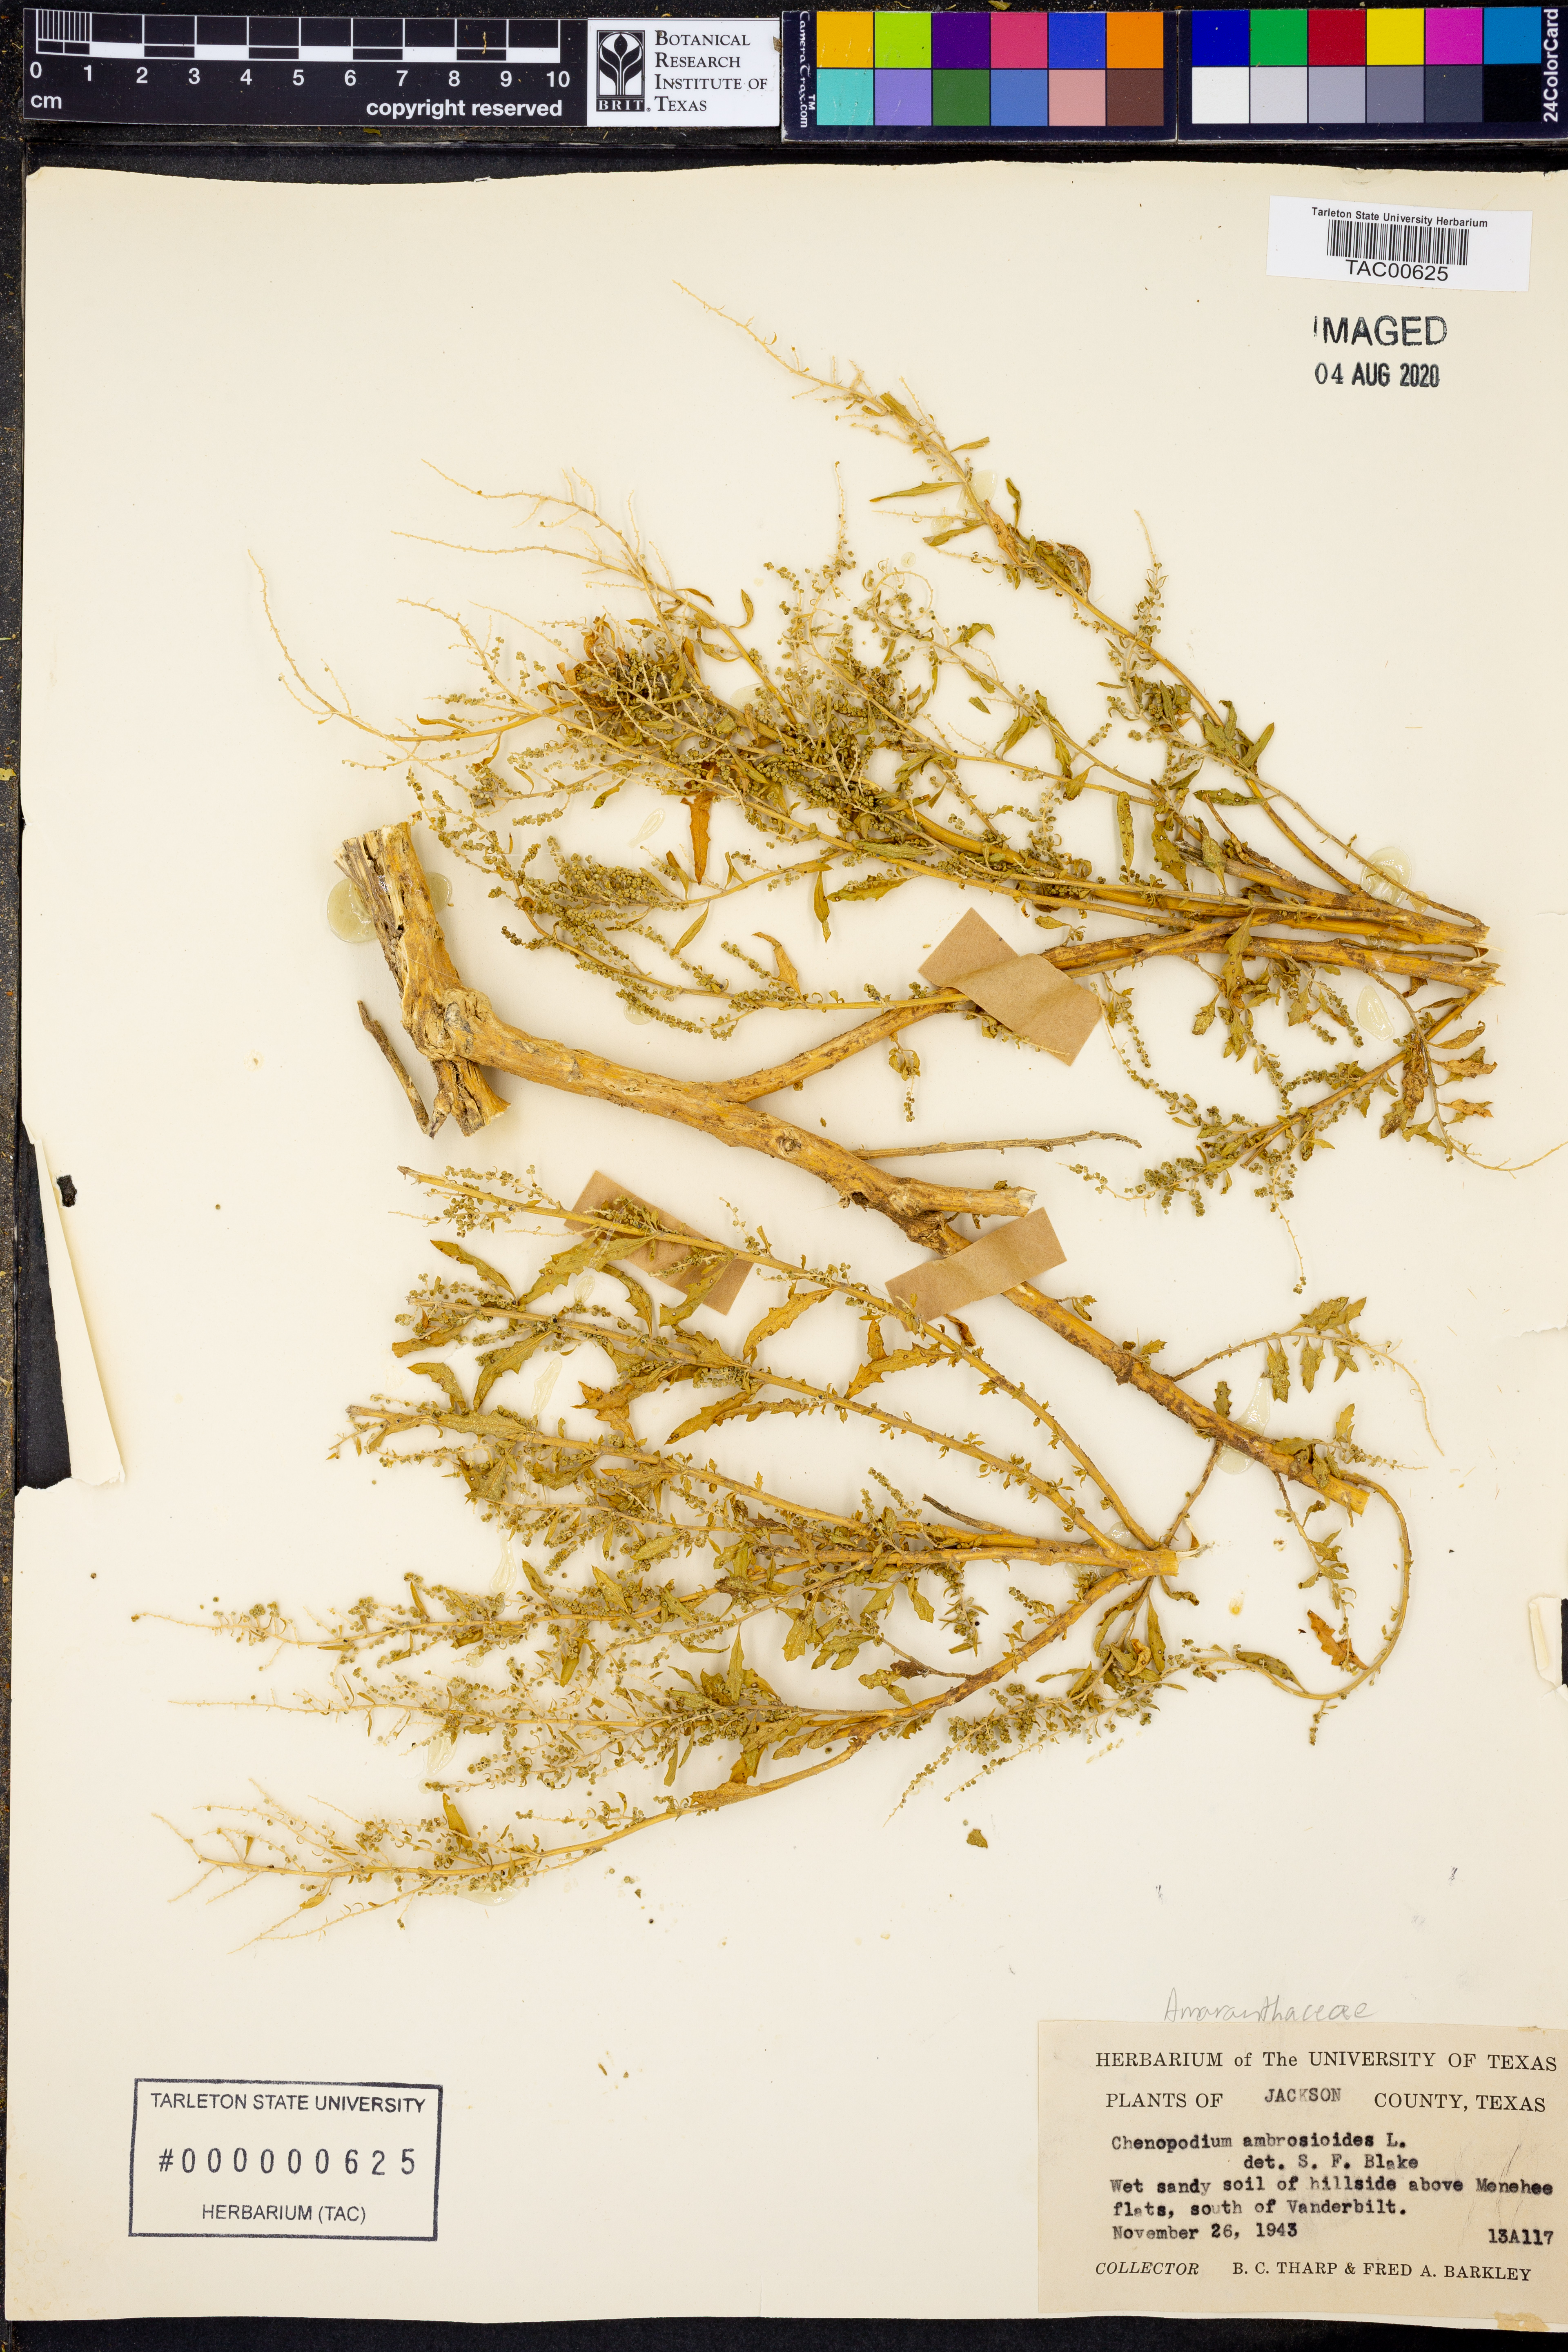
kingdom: Plantae
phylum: Tracheophyta
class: Magnoliopsida
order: Caryophyllales
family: Amaranthaceae
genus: Dysphania
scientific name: Dysphania ambrosioides
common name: Wormseed
